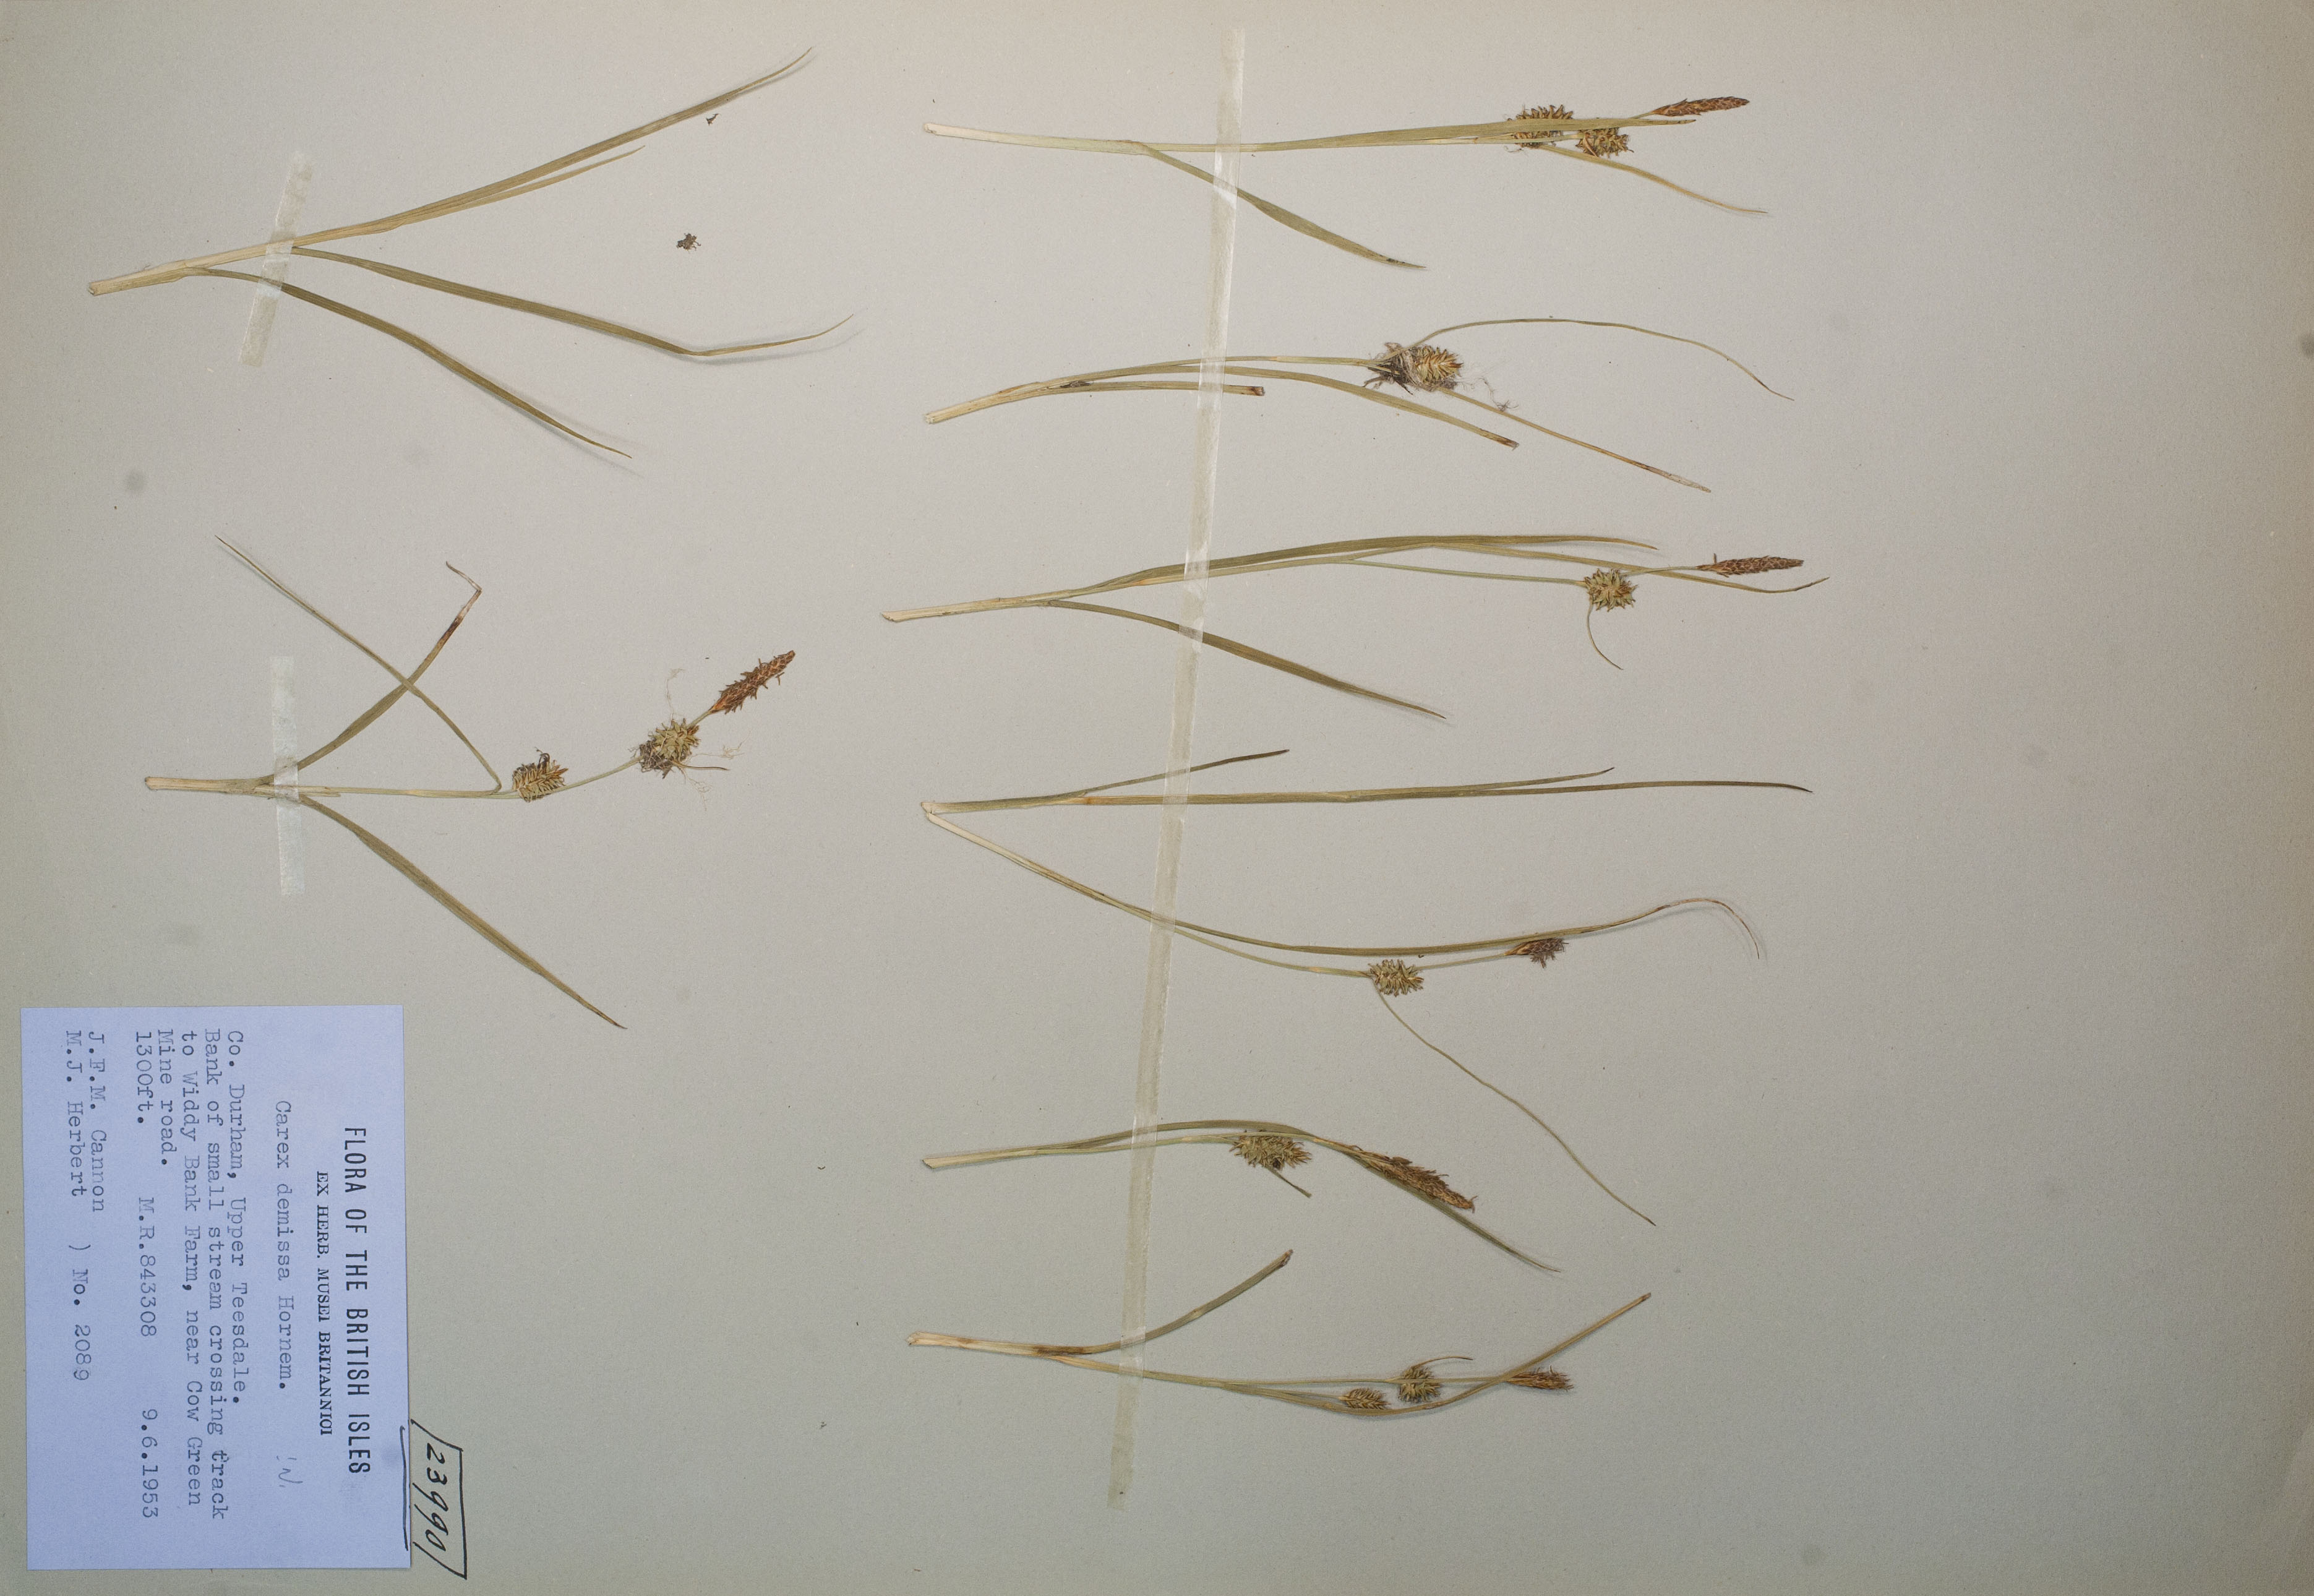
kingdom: Plantae
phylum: Tracheophyta
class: Liliopsida
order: Poales
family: Cyperaceae
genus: Carex
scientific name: Carex demissa
